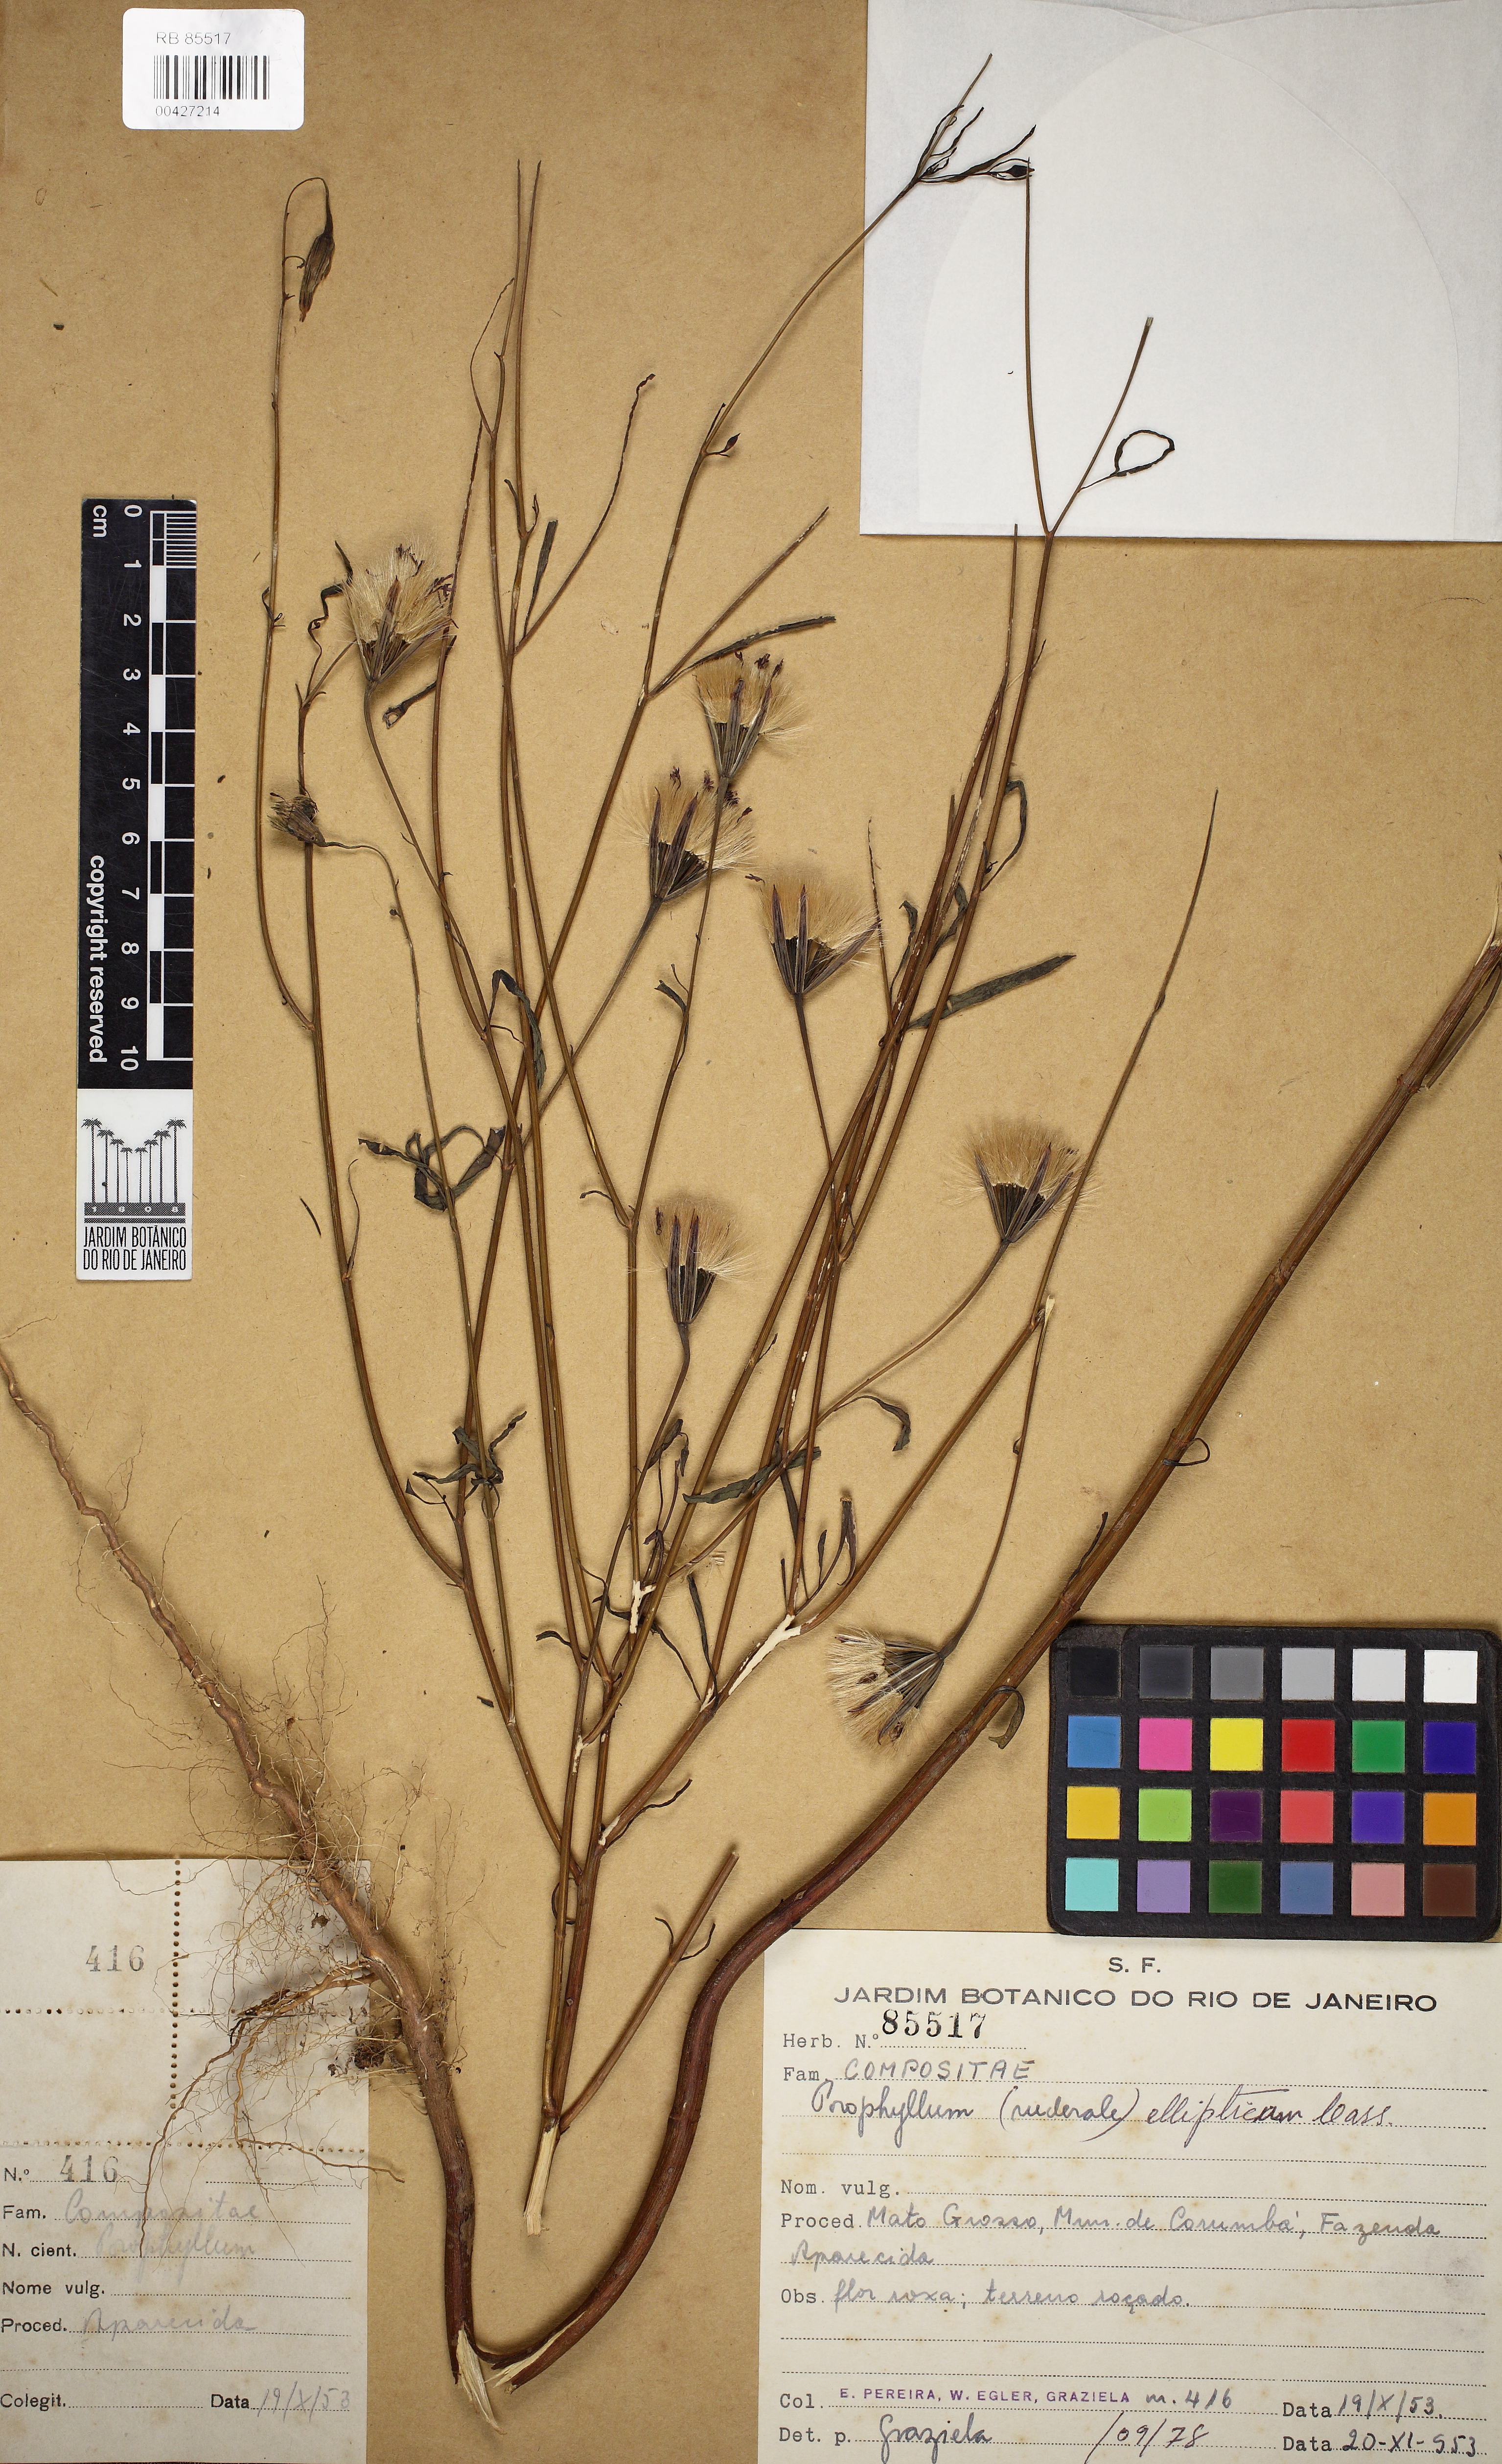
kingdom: Plantae
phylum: Tracheophyta
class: Magnoliopsida
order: Asterales
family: Asteraceae
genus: Porophyllum
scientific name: Porophyllum ruderale
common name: Yerba porosa
